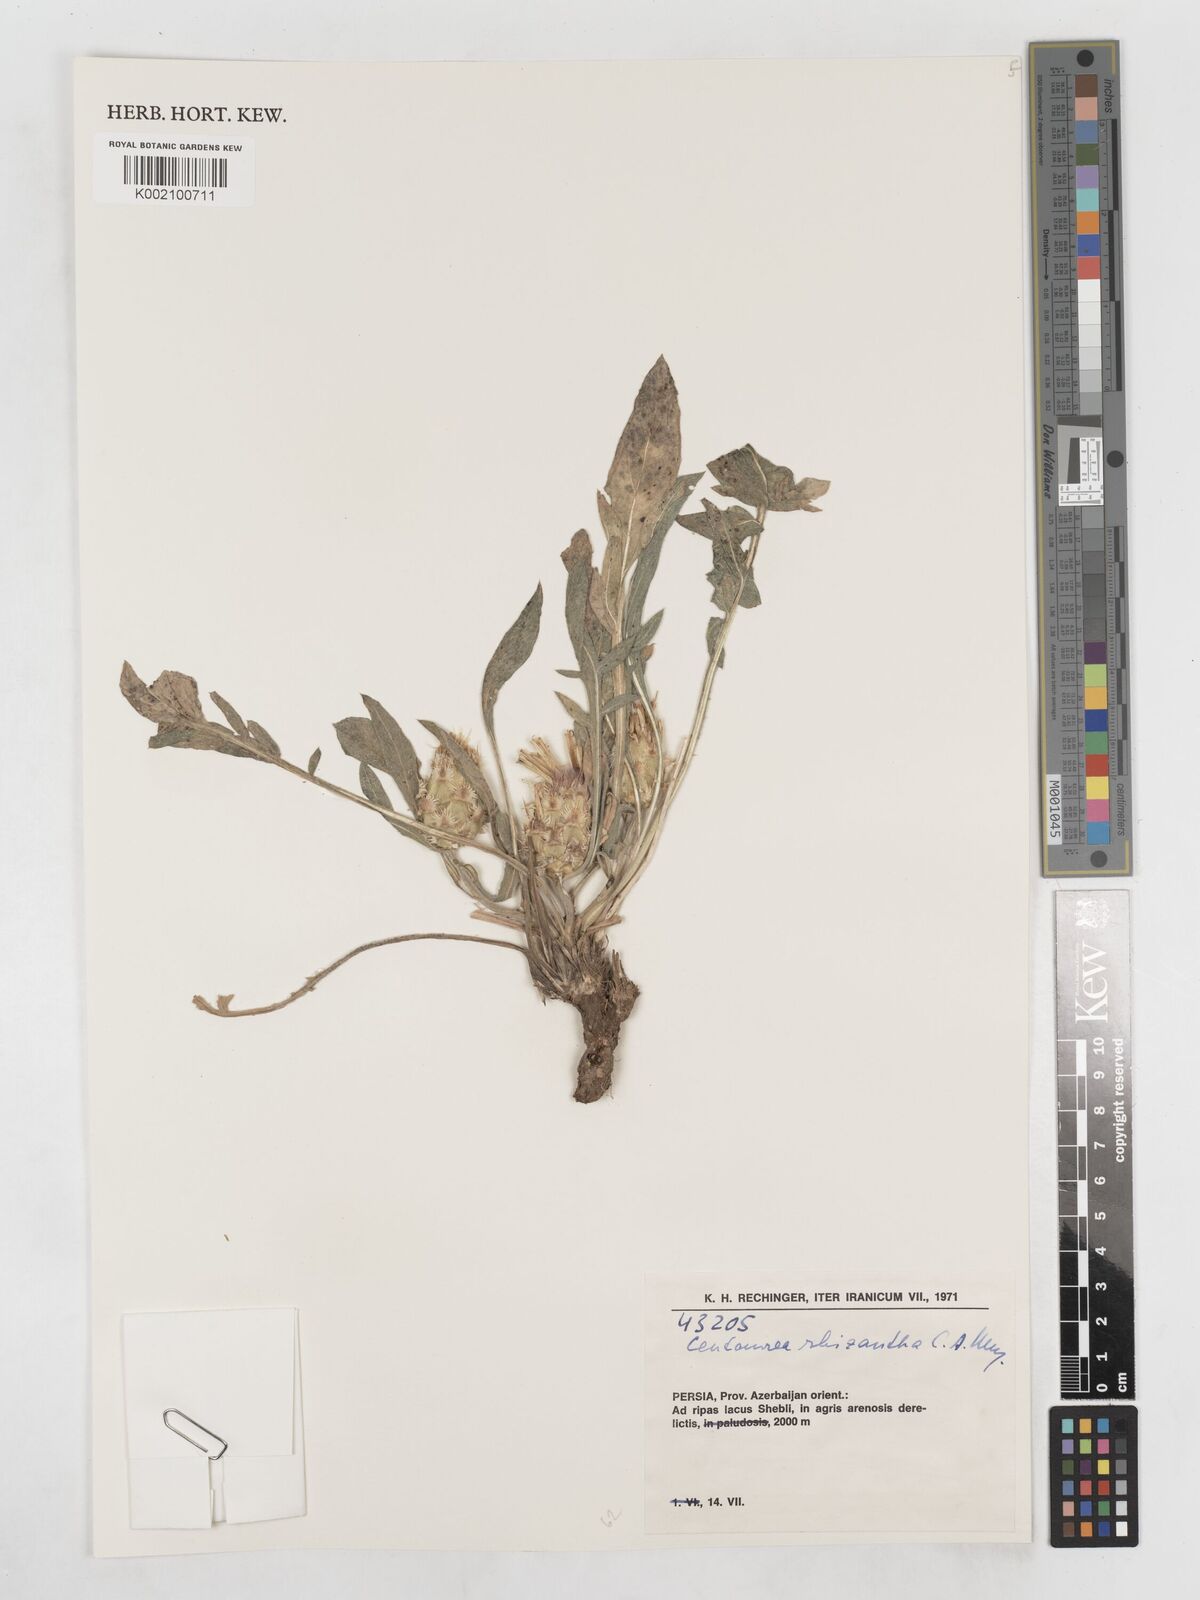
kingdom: Plantae
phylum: Tracheophyta
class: Magnoliopsida
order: Asterales
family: Asteraceae
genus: Centaurea
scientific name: Centaurea rhizantha
